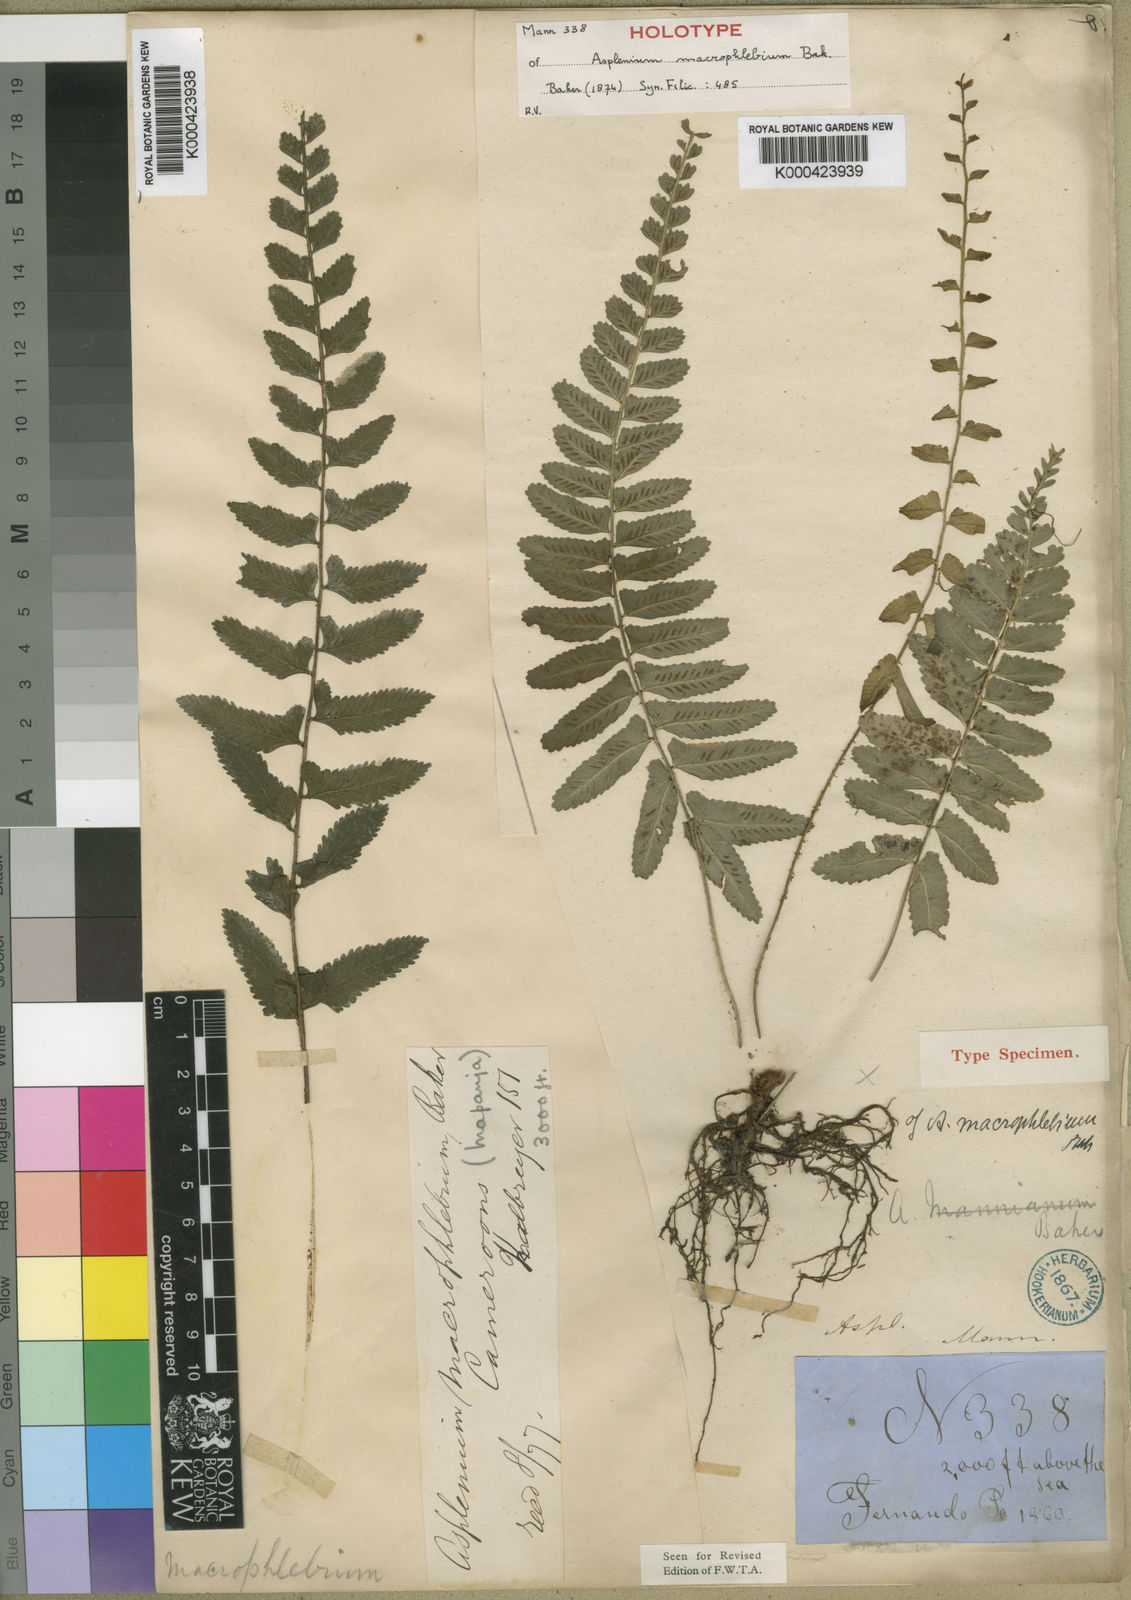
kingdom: Plantae
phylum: Tracheophyta
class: Polypodiopsida
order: Polypodiales
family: Aspleniaceae
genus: Asplenium
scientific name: Asplenium macrophlebium
